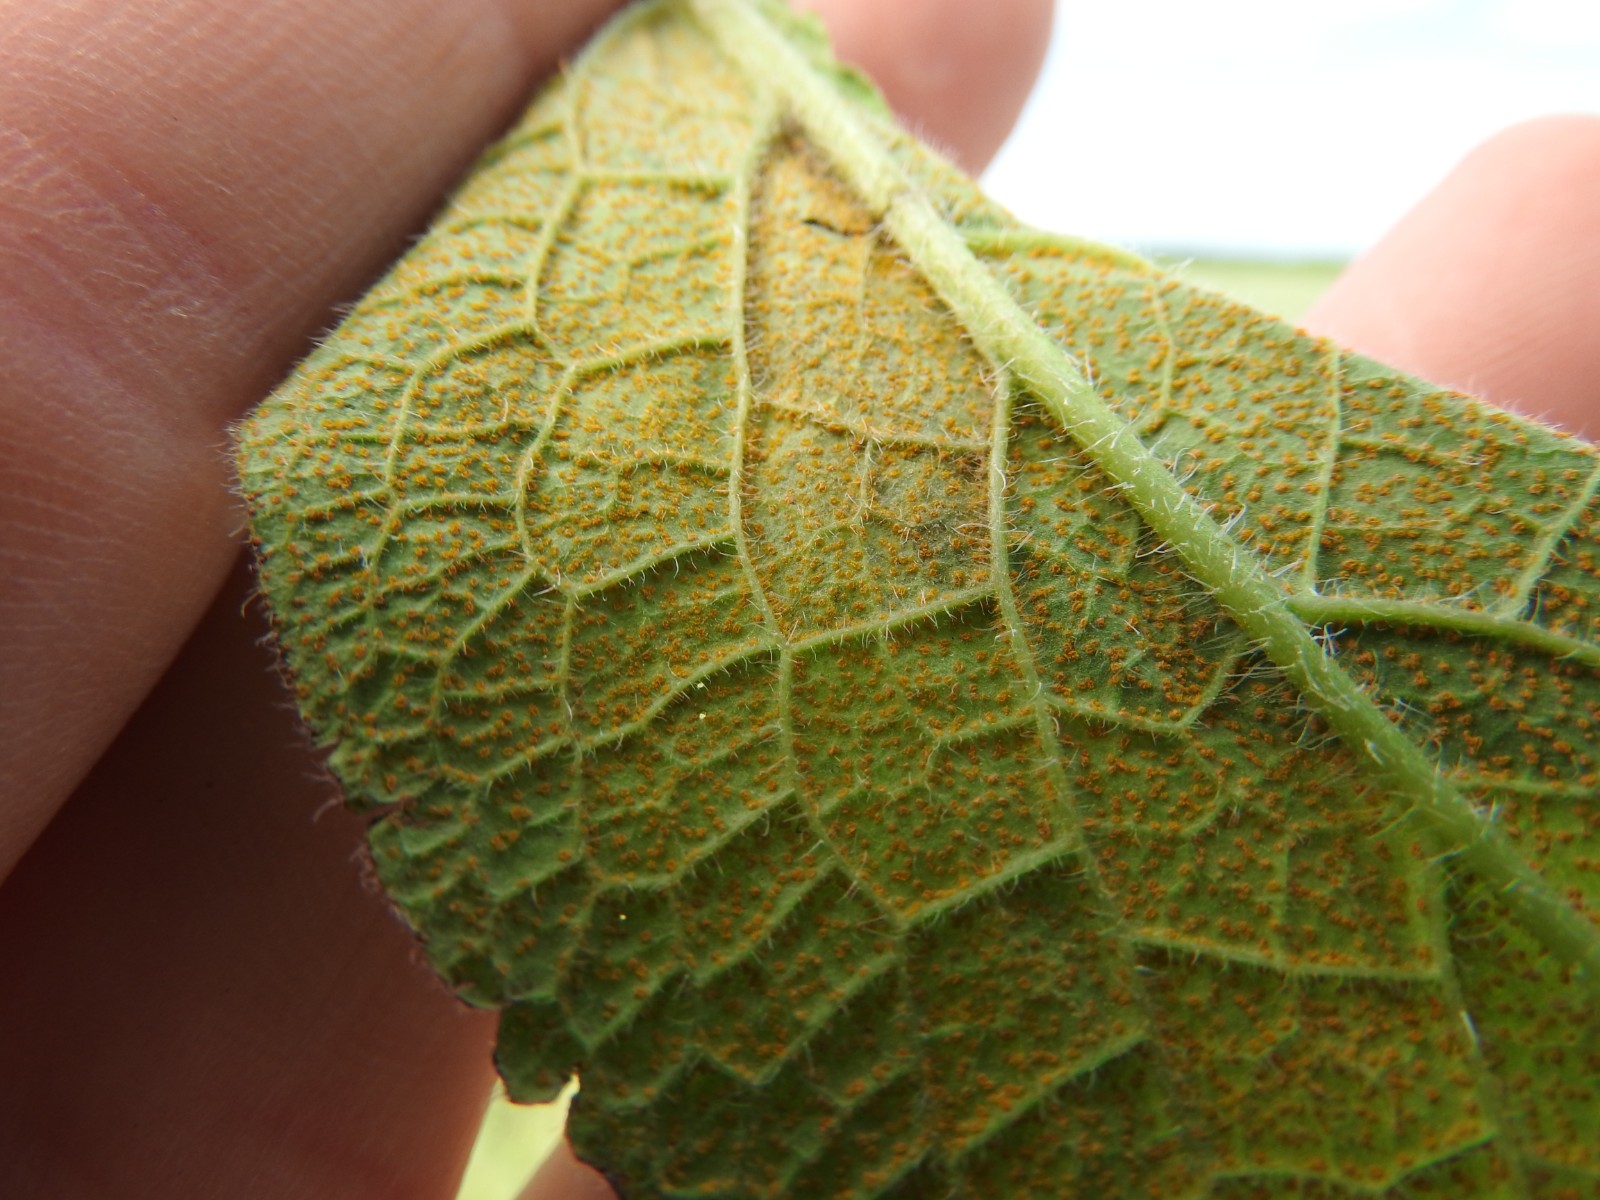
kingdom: Fungi
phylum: Basidiomycota
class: Pucciniomycetes
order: Pucciniales
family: Pucciniastraceae
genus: Pucciniastrum
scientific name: Pucciniastrum symphyti
